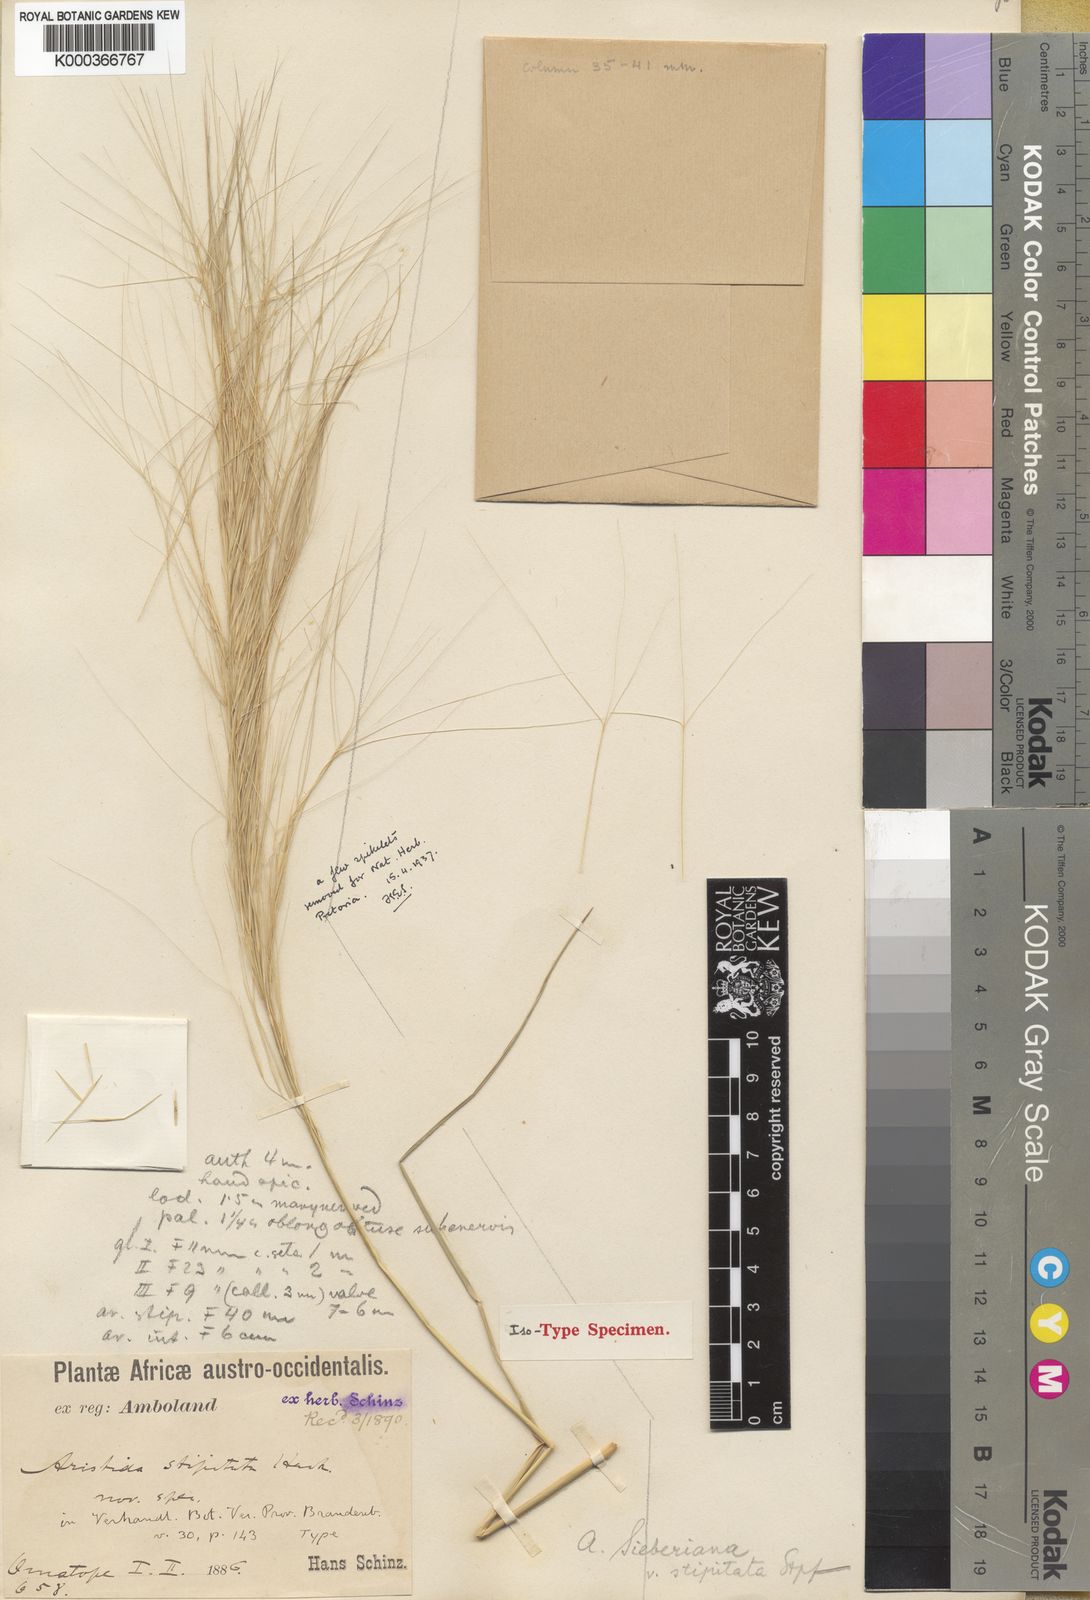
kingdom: Plantae
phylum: Tracheophyta
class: Liliopsida
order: Poales
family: Poaceae
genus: Aristida
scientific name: Aristida
